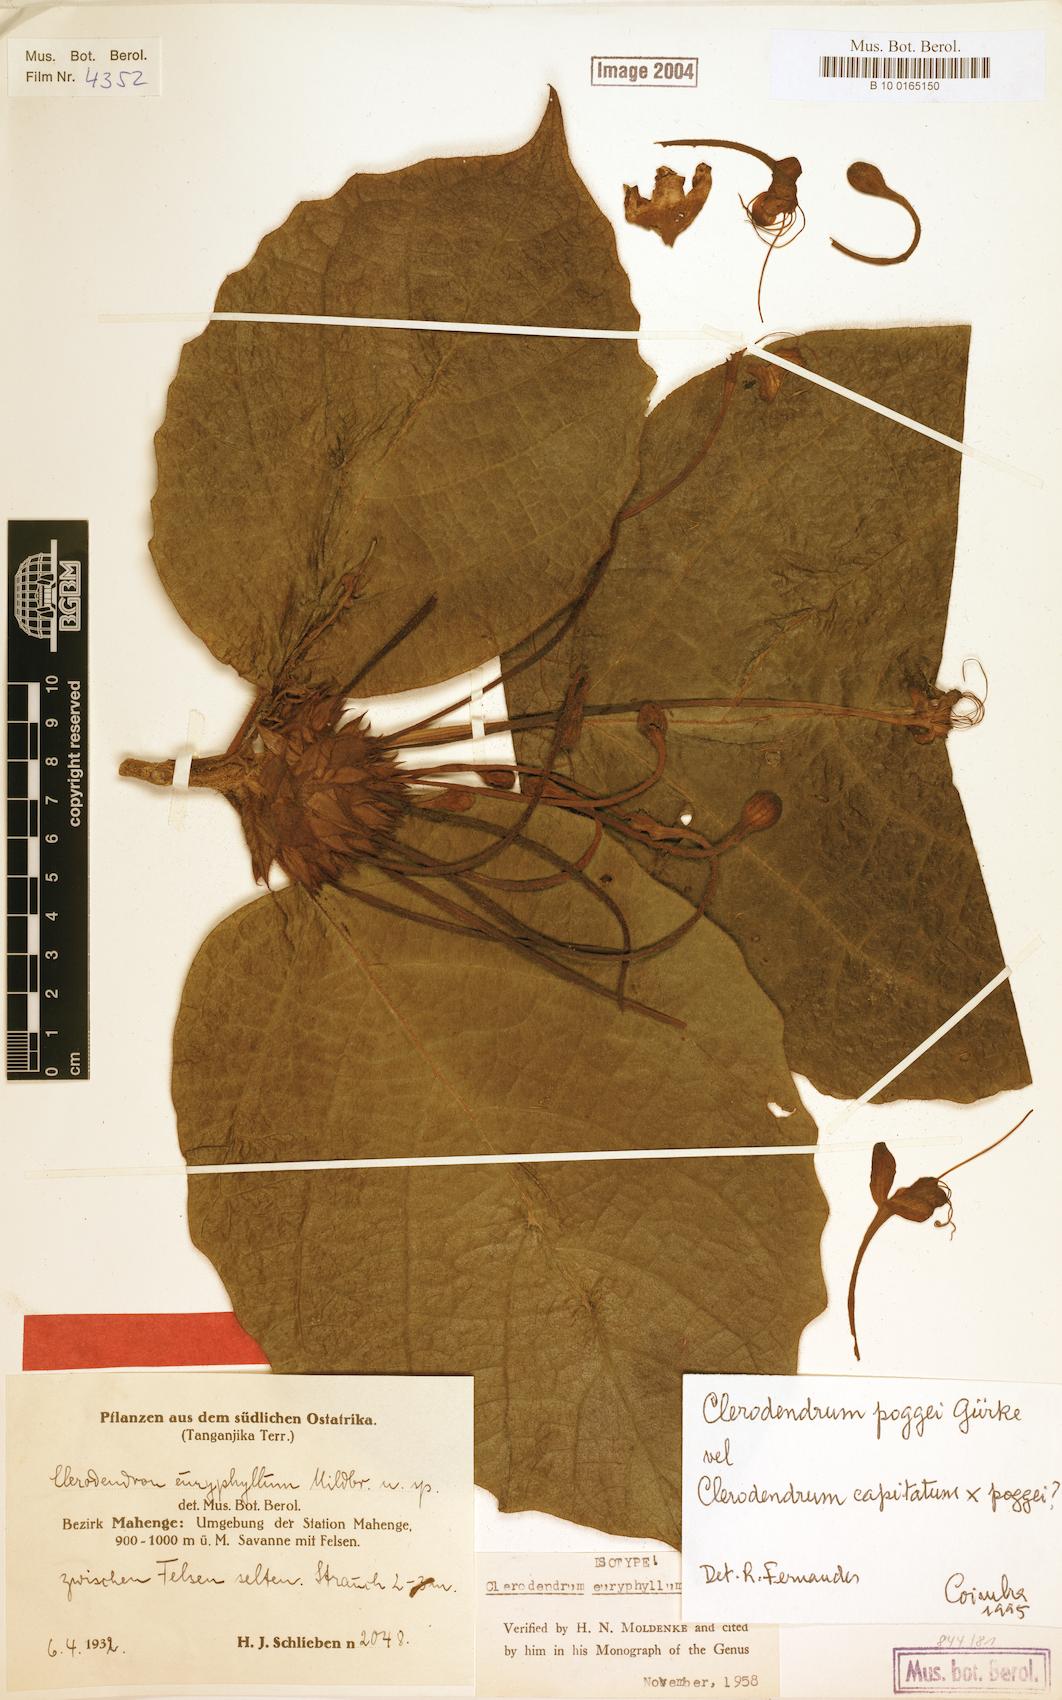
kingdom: Plantae
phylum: Tracheophyta
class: Magnoliopsida
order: Lamiales
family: Lamiaceae
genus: Clerodendrum
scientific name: Clerodendrum poggei
